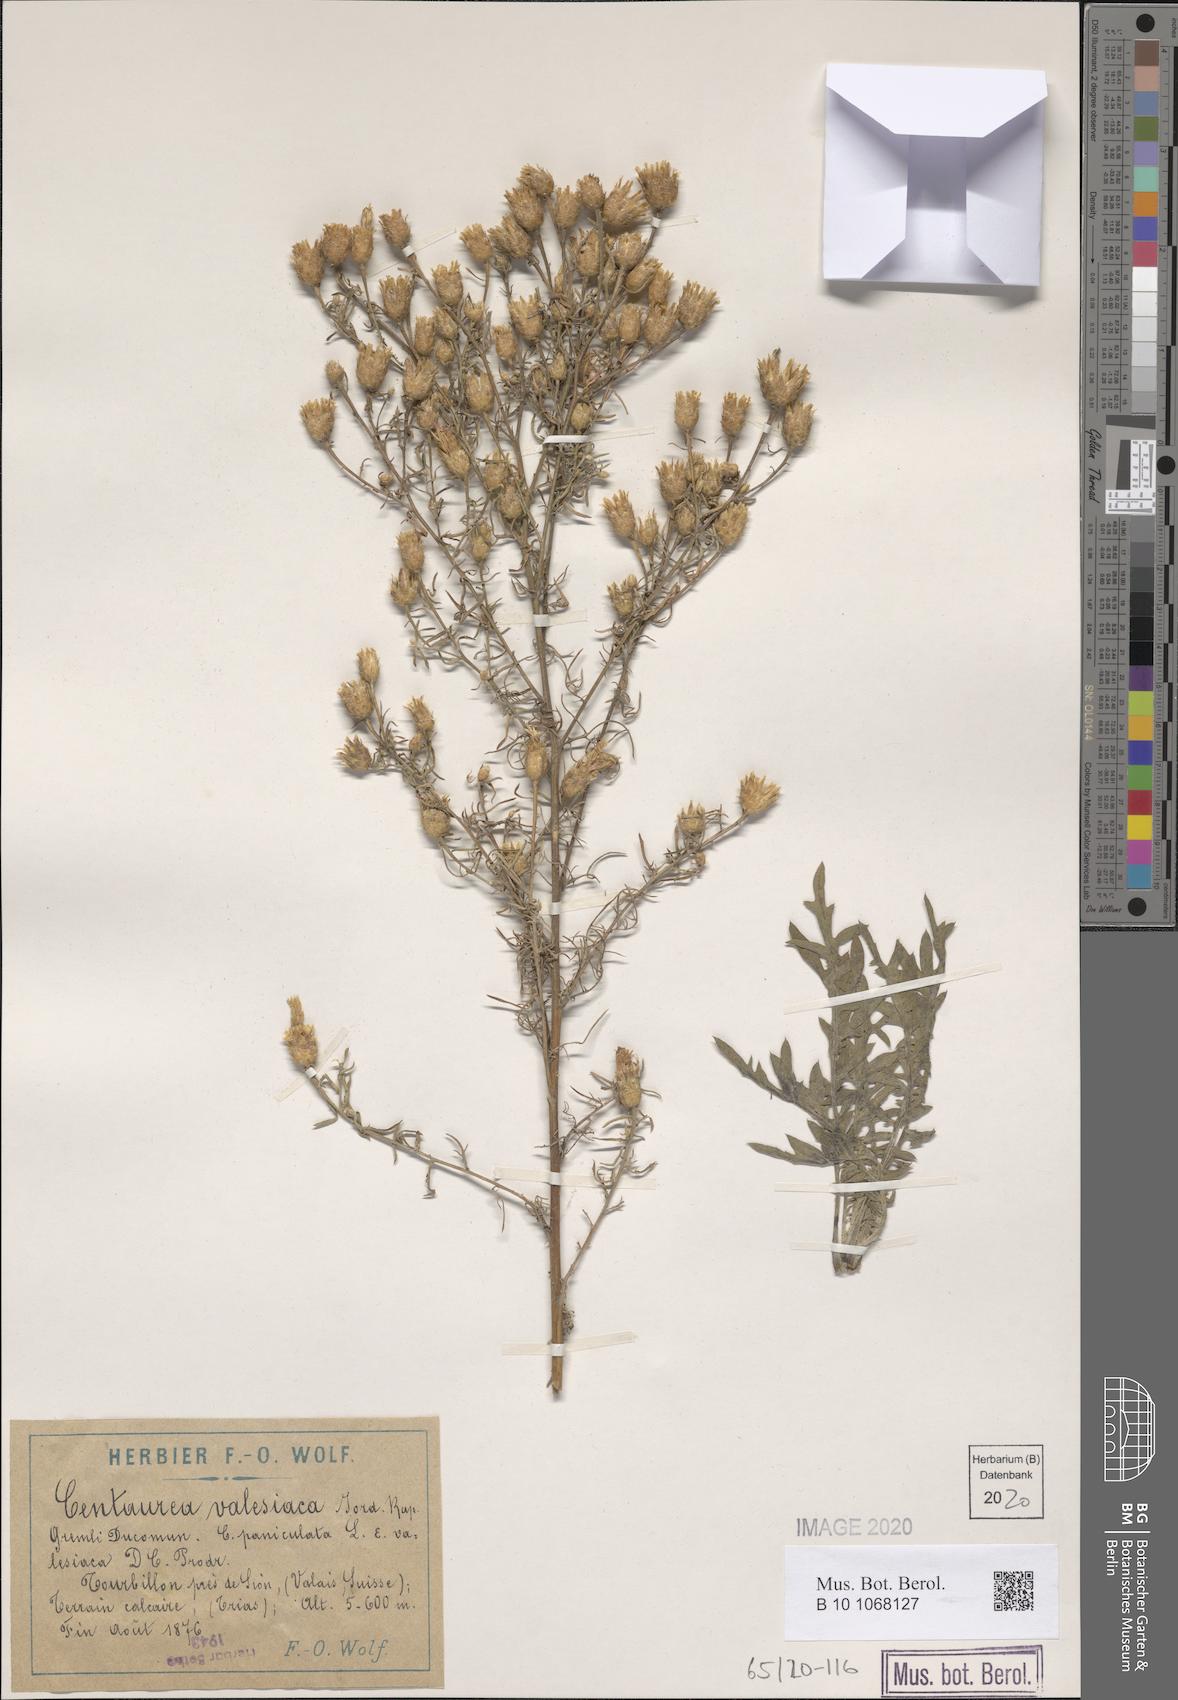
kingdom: Plantae
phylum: Tracheophyta
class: Magnoliopsida
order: Asterales
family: Asteraceae
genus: Centaurea
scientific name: Centaurea valesiaca
